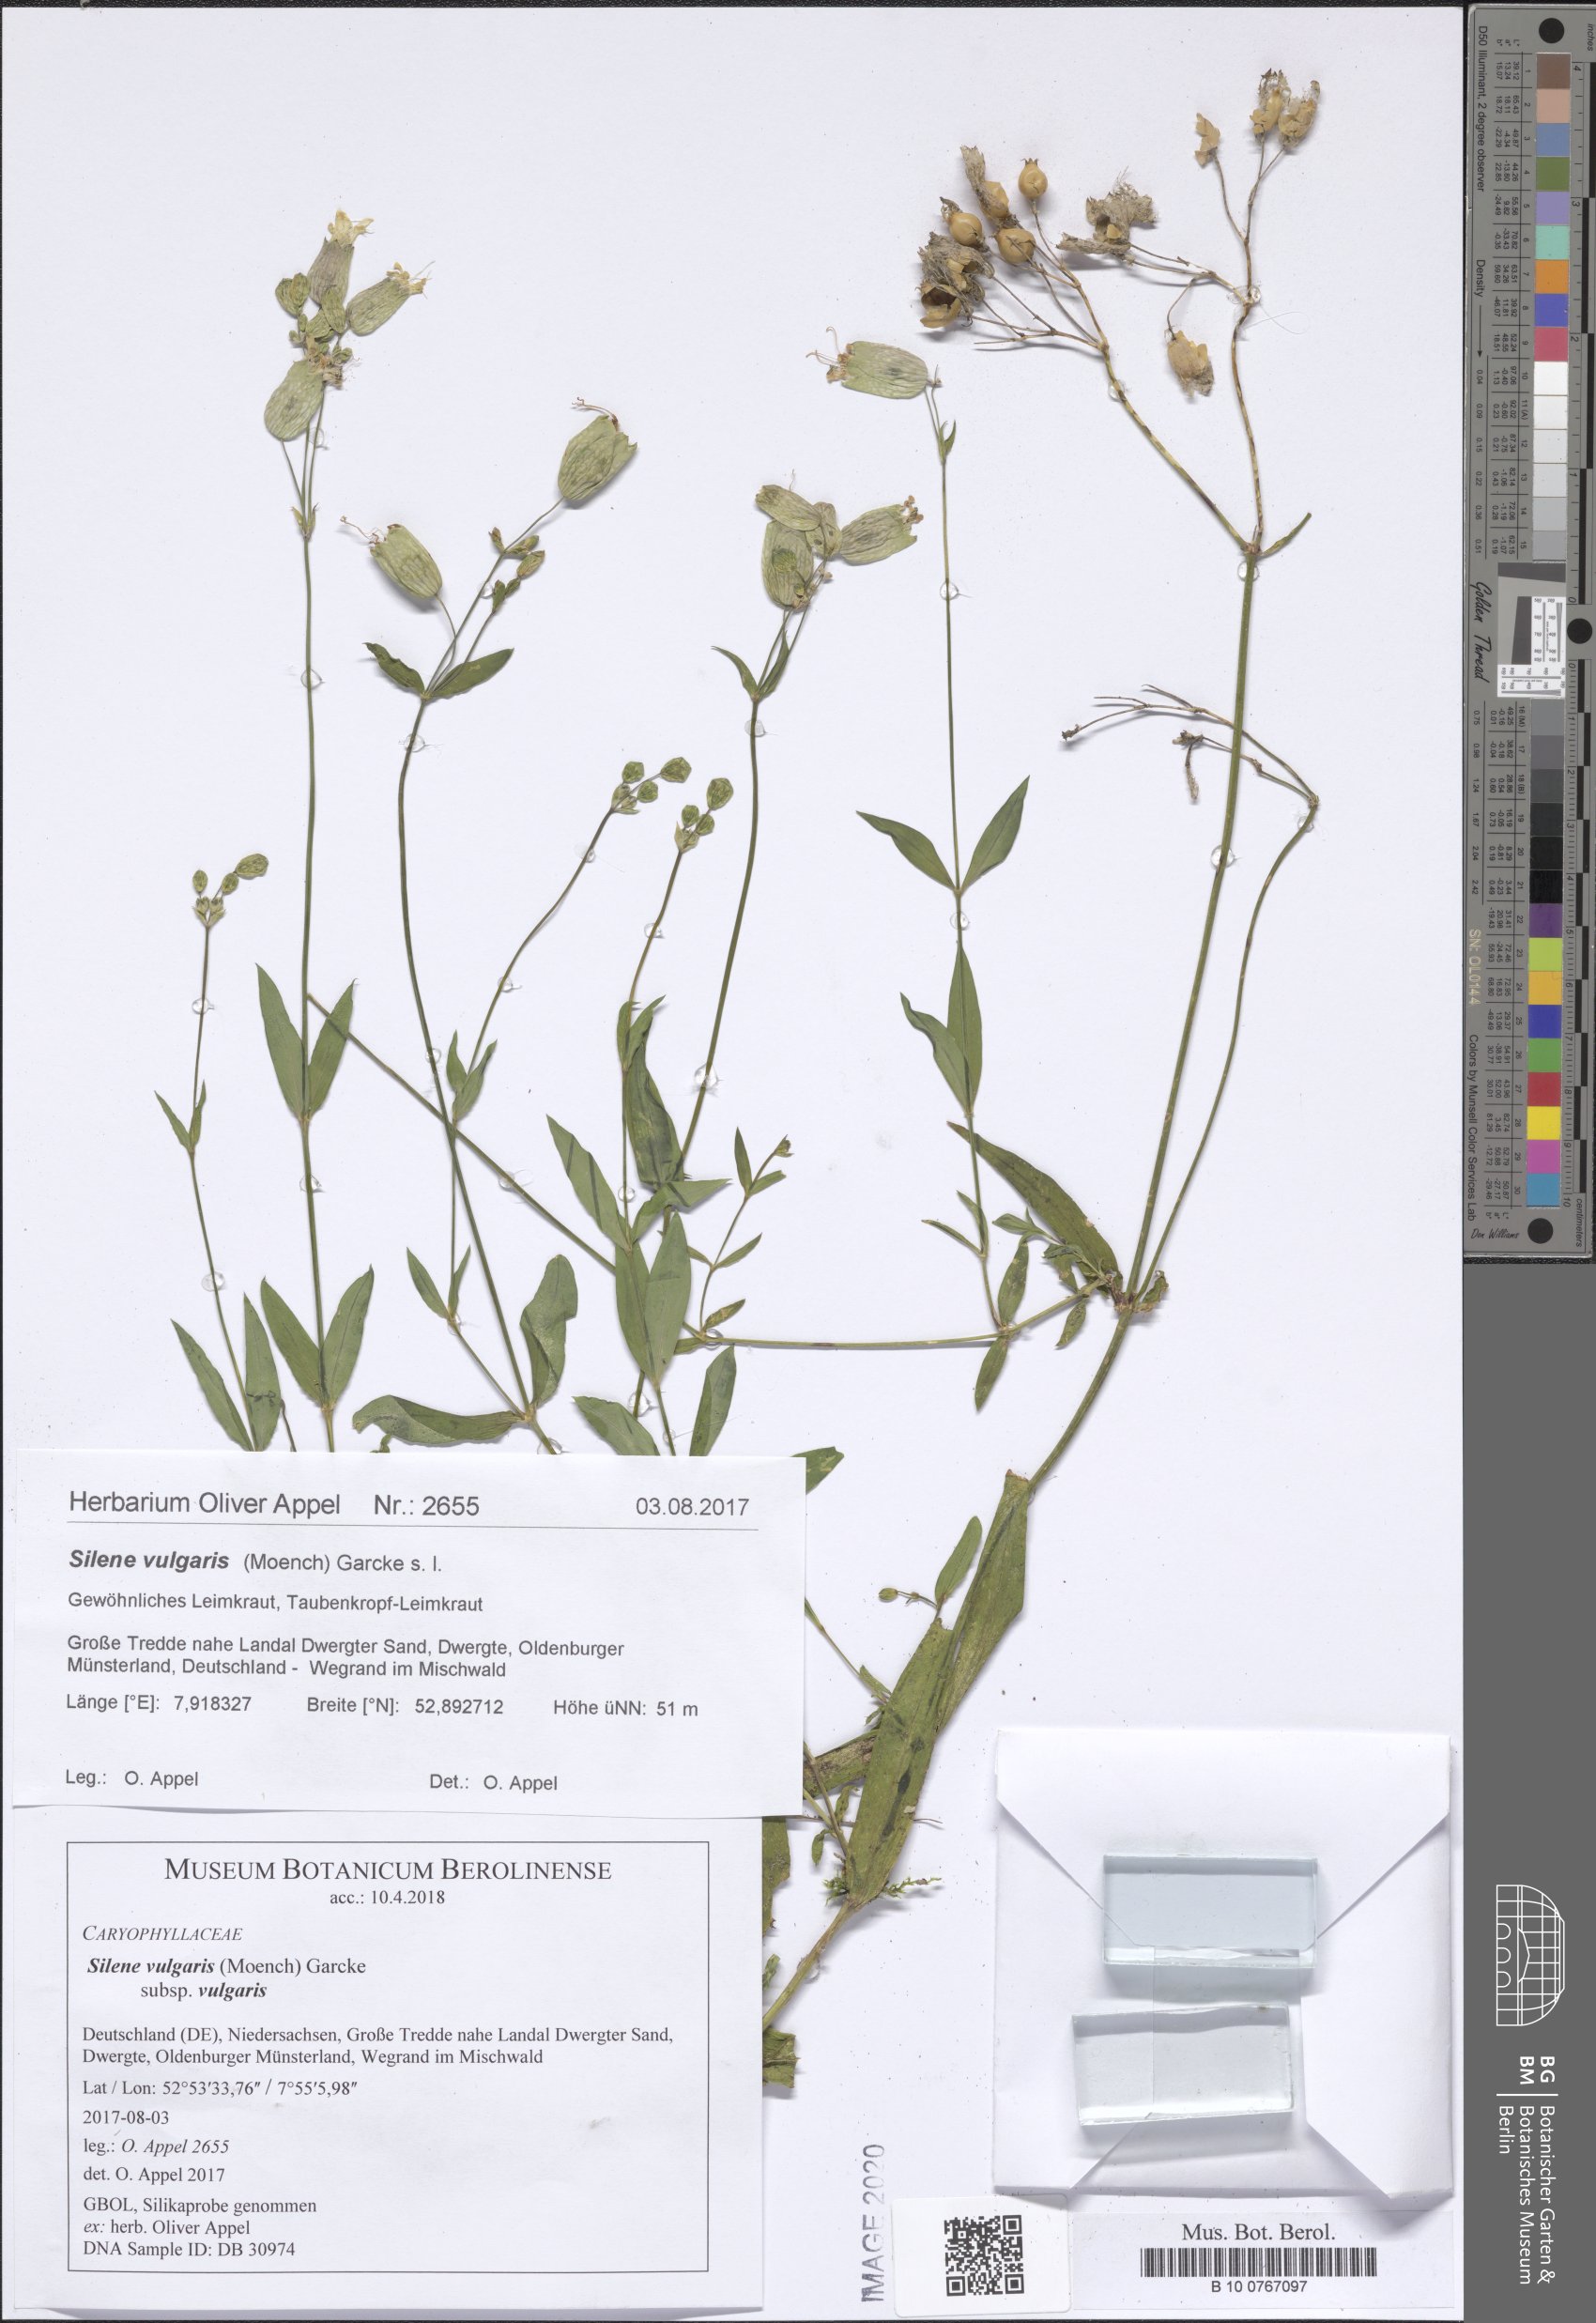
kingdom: Plantae
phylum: Tracheophyta
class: Magnoliopsida
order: Caryophyllales
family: Caryophyllaceae
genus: Silene
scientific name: Silene vulgaris
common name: Bladder campion
